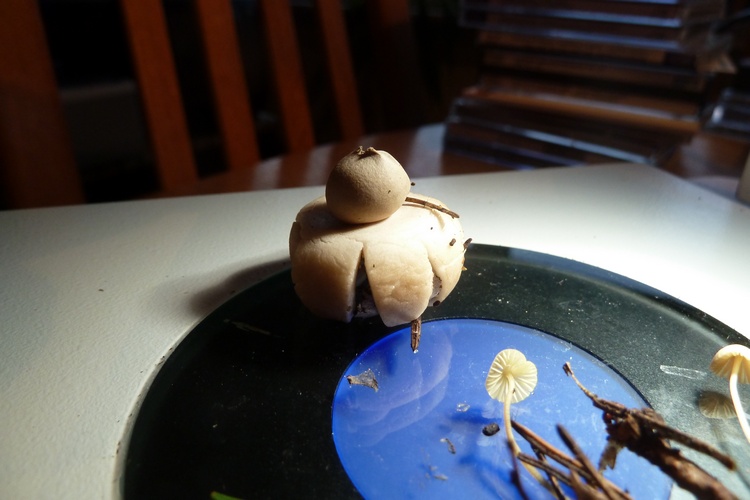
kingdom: Fungi
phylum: Basidiomycota
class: Agaricomycetes
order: Geastrales
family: Geastraceae
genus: Geastrum
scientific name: Geastrum fimbriatum
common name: frynset stjernebold
